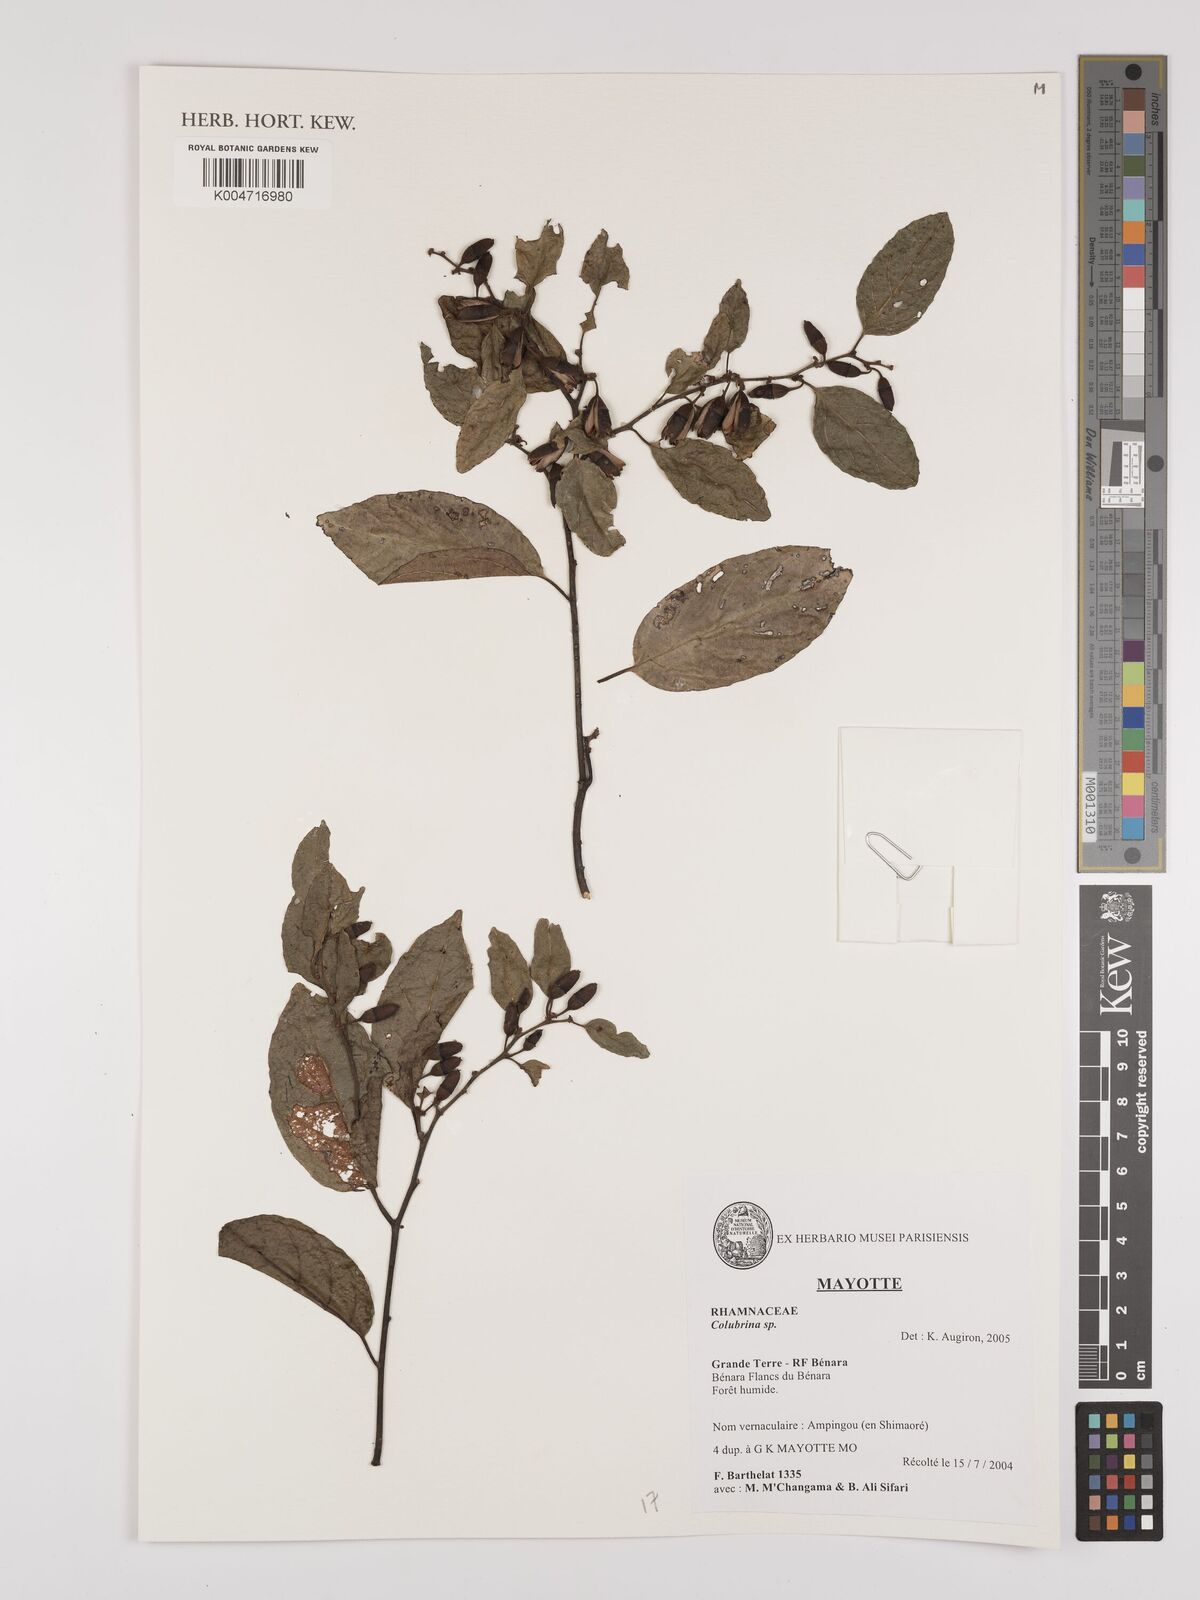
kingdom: Plantae
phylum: Tracheophyta
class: Magnoliopsida
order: Rosales
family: Rhamnaceae
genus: Colubrina
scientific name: Colubrina
